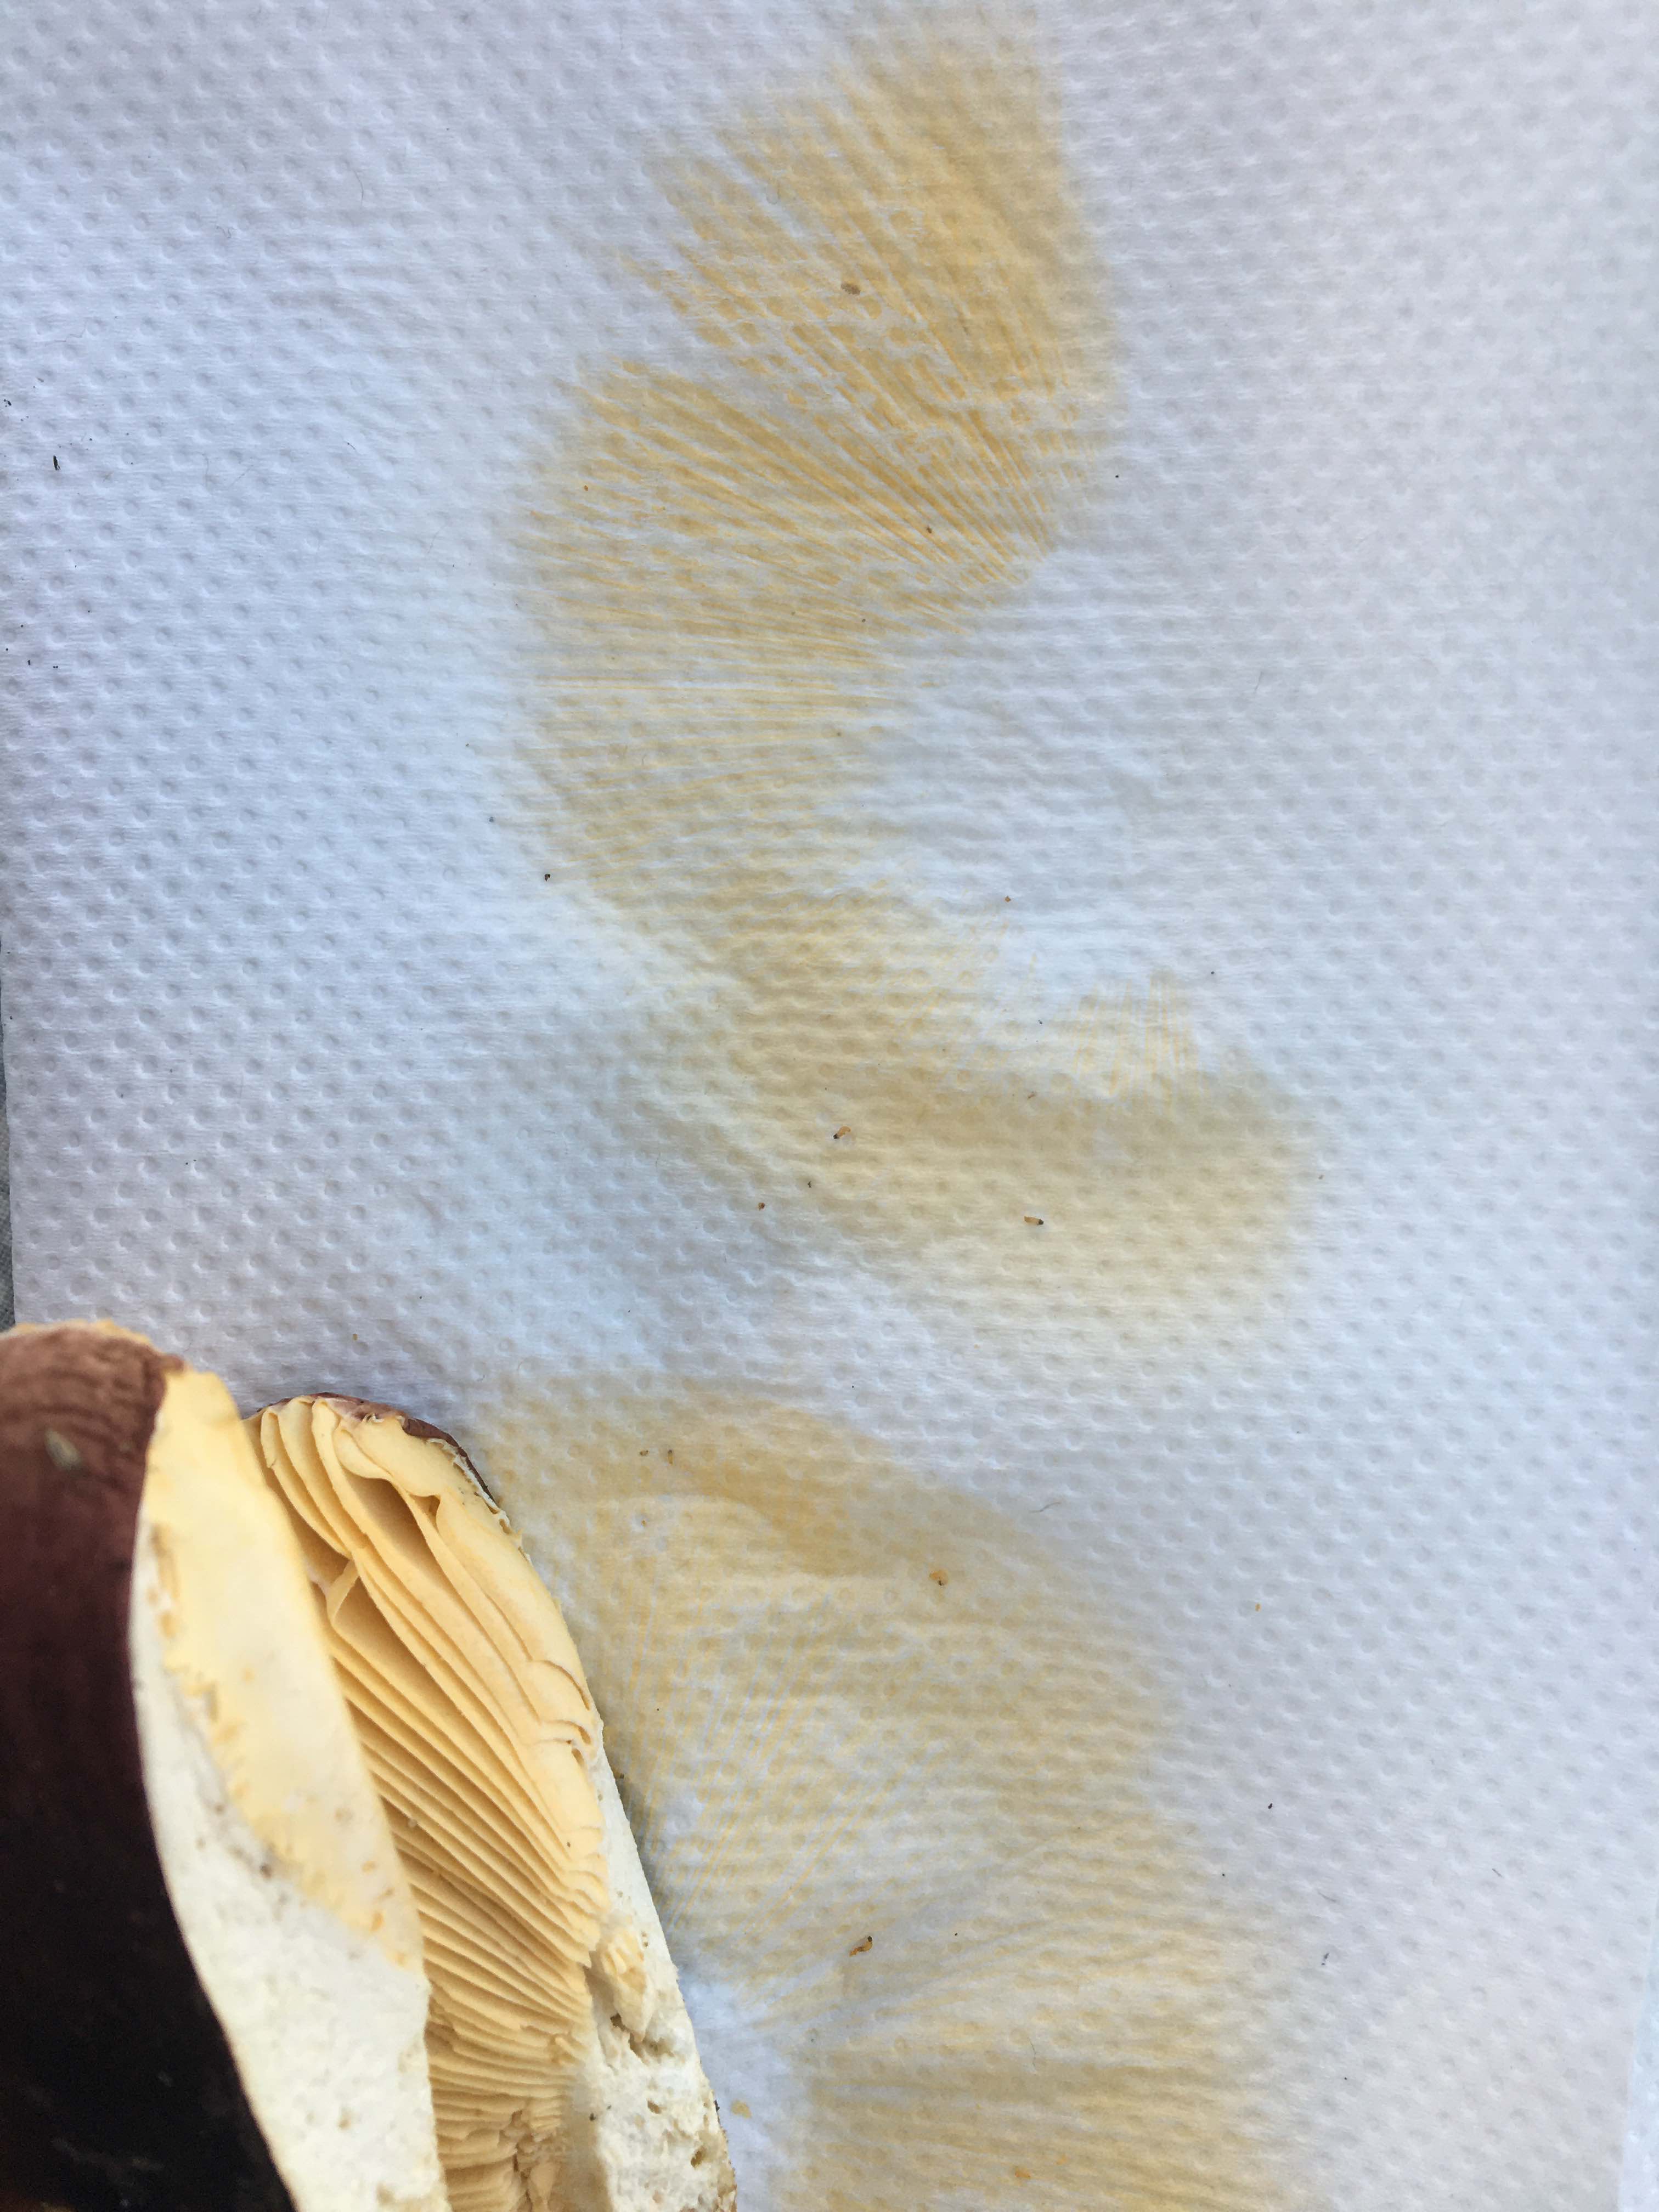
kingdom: Fungi
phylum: Basidiomycota
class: Agaricomycetes
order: Russulales
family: Russulaceae
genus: Russula
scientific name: Russula integra
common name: mandel-skørhat
